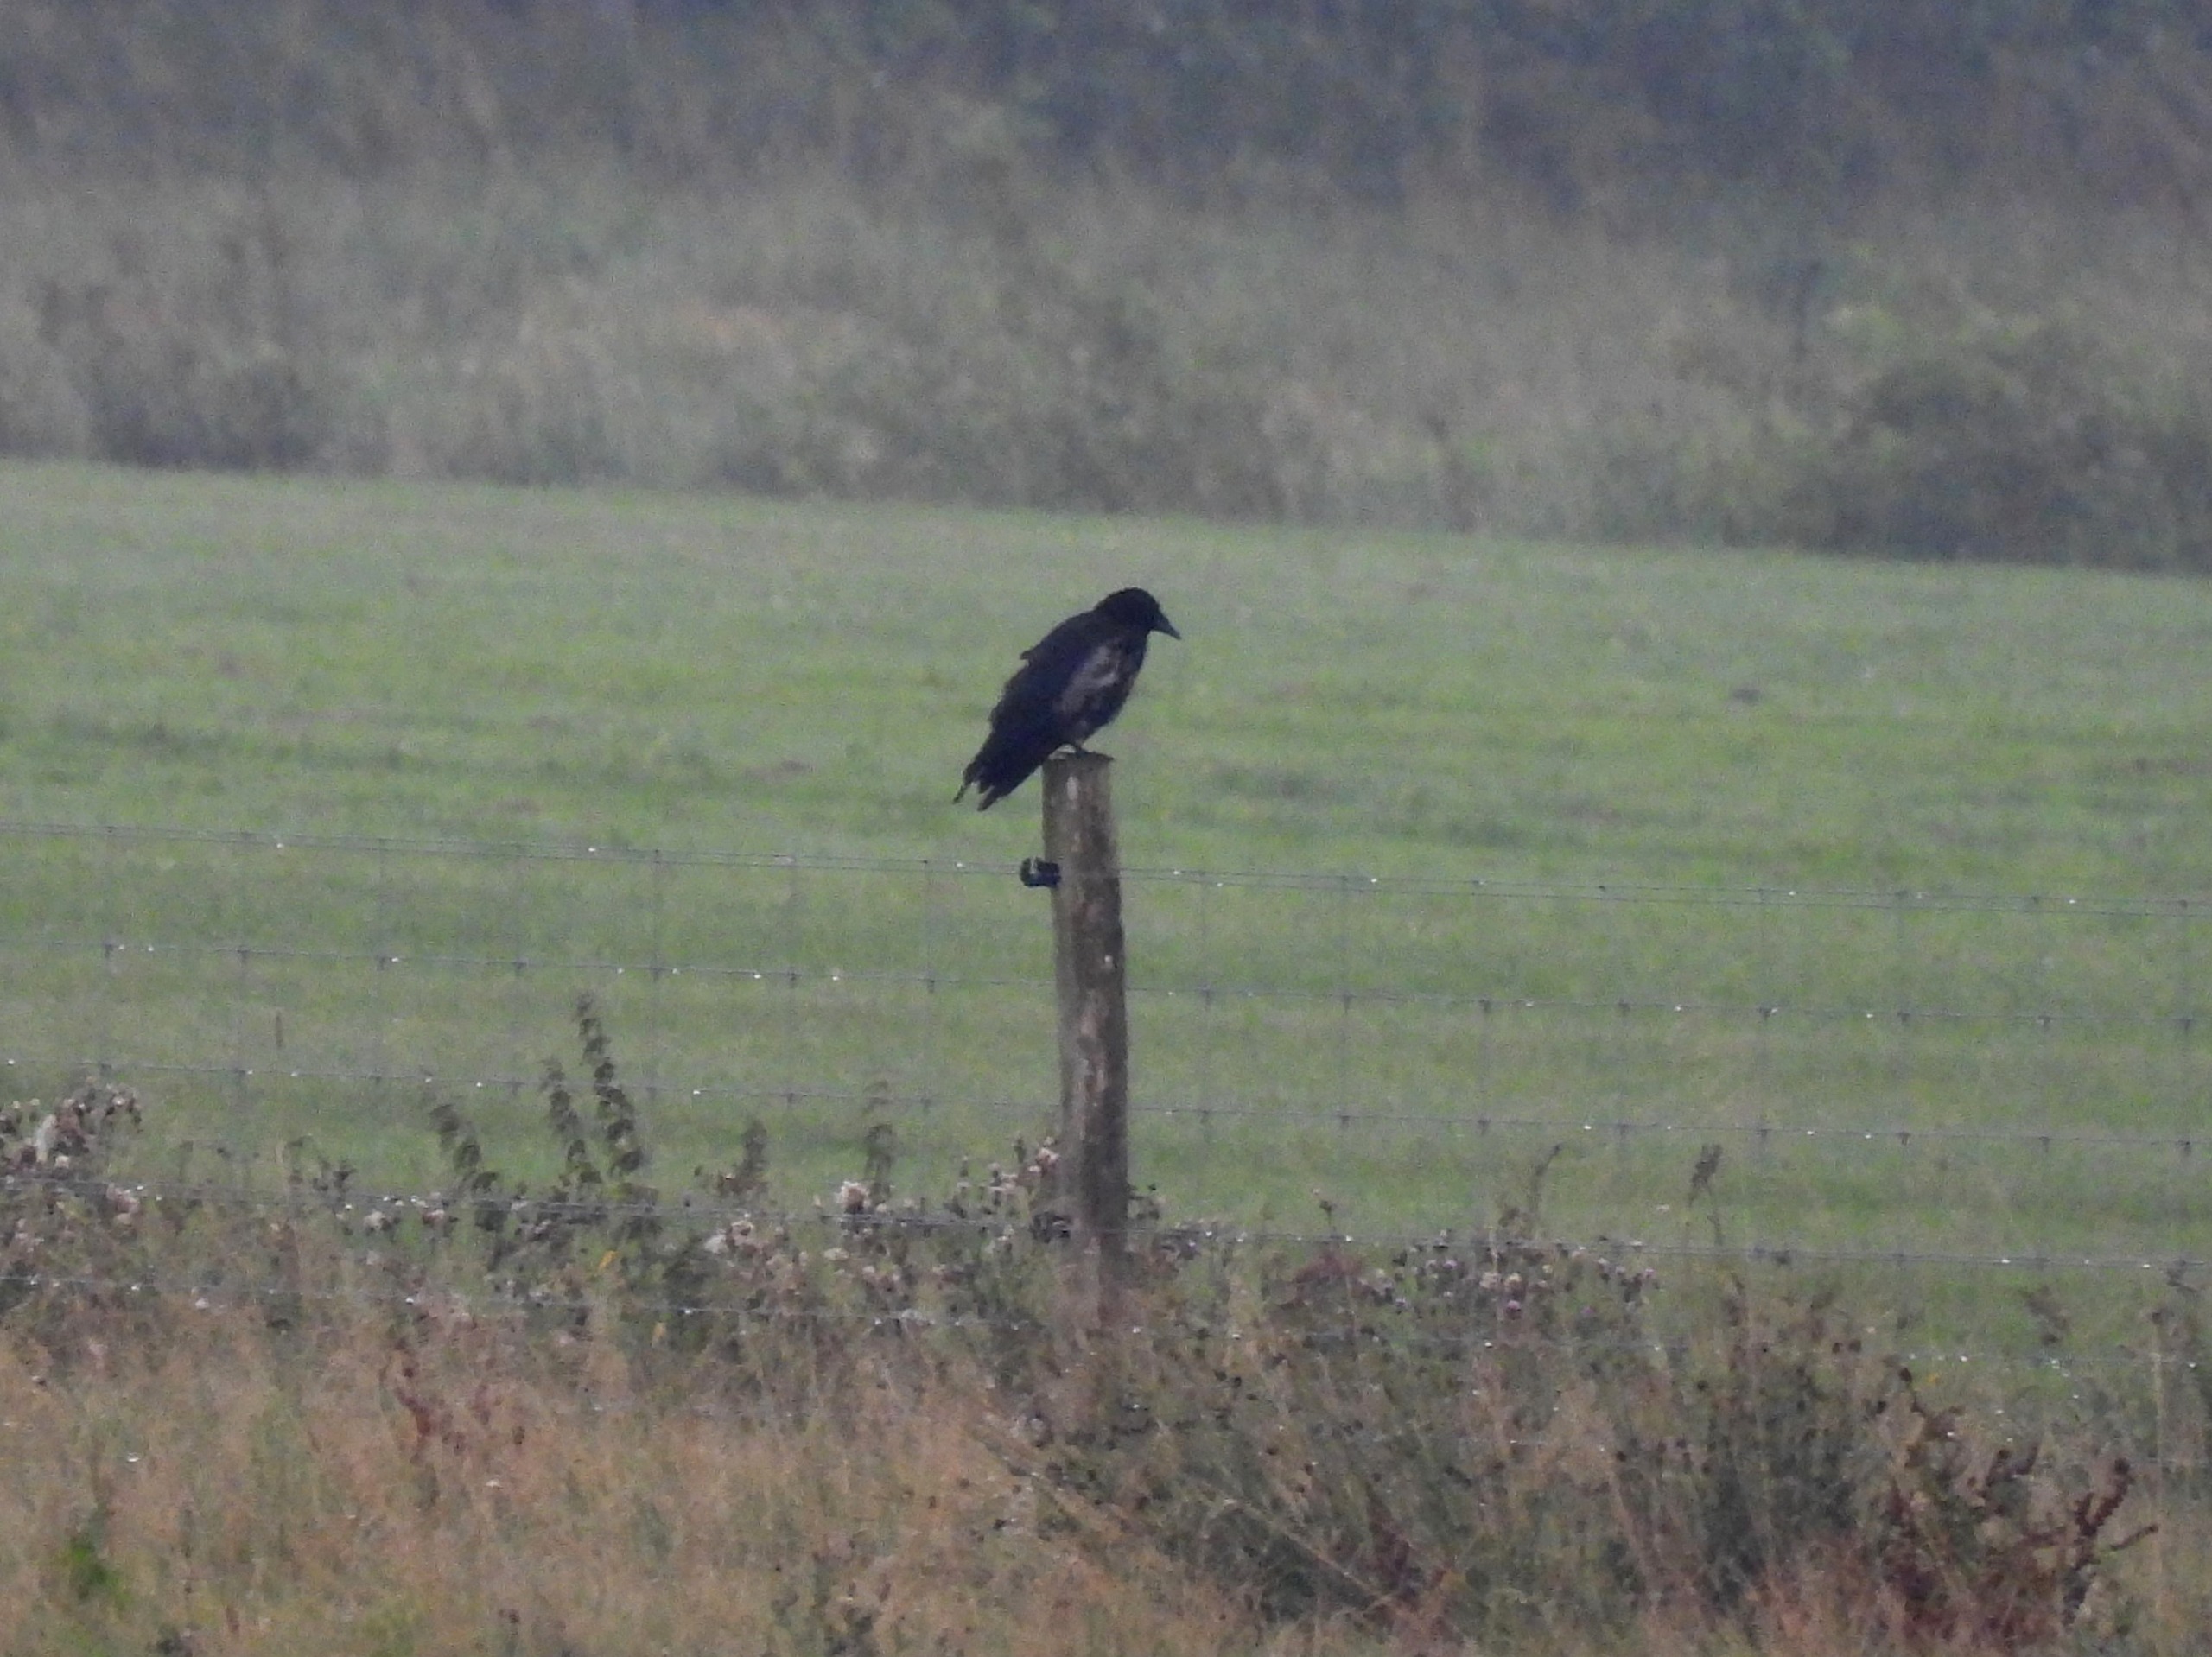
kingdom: Animalia
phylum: Chordata
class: Aves
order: Passeriformes
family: Corvidae
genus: Corvus
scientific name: Corvus
